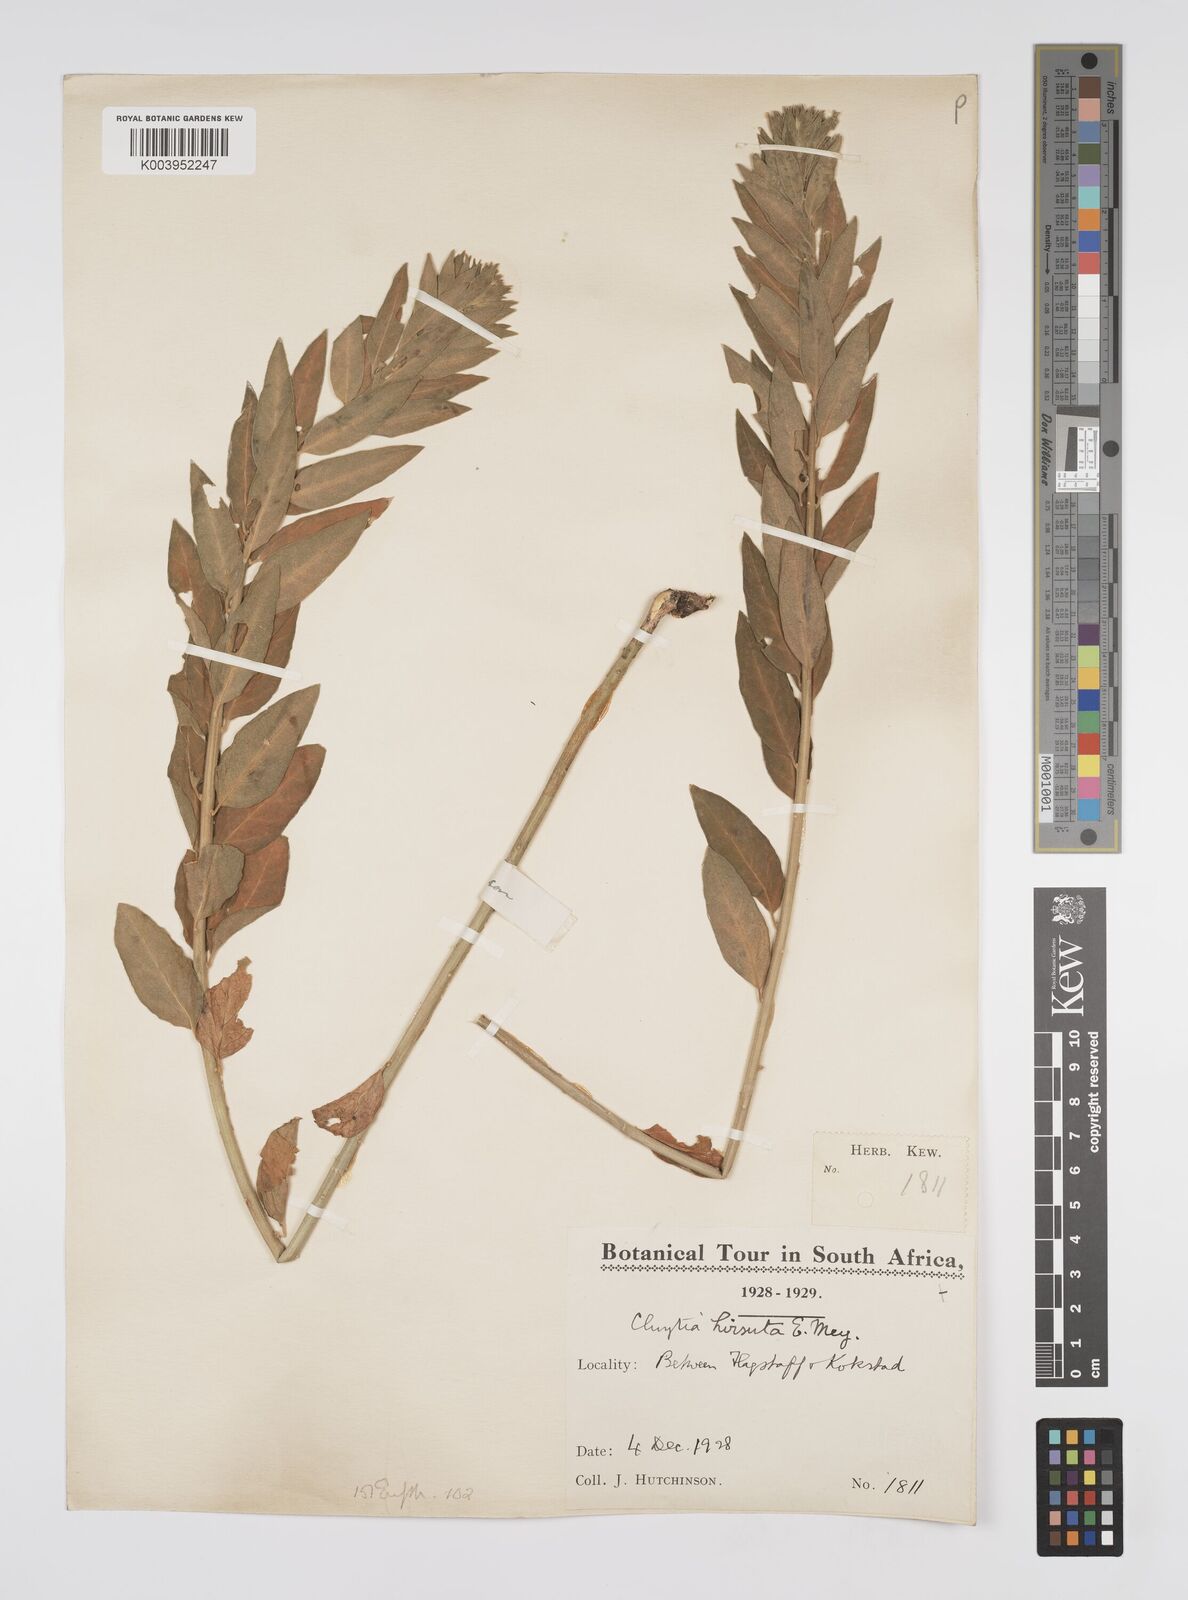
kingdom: Plantae
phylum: Tracheophyta
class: Magnoliopsida
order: Malpighiales
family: Peraceae
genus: Clutia
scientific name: Clutia affinis
